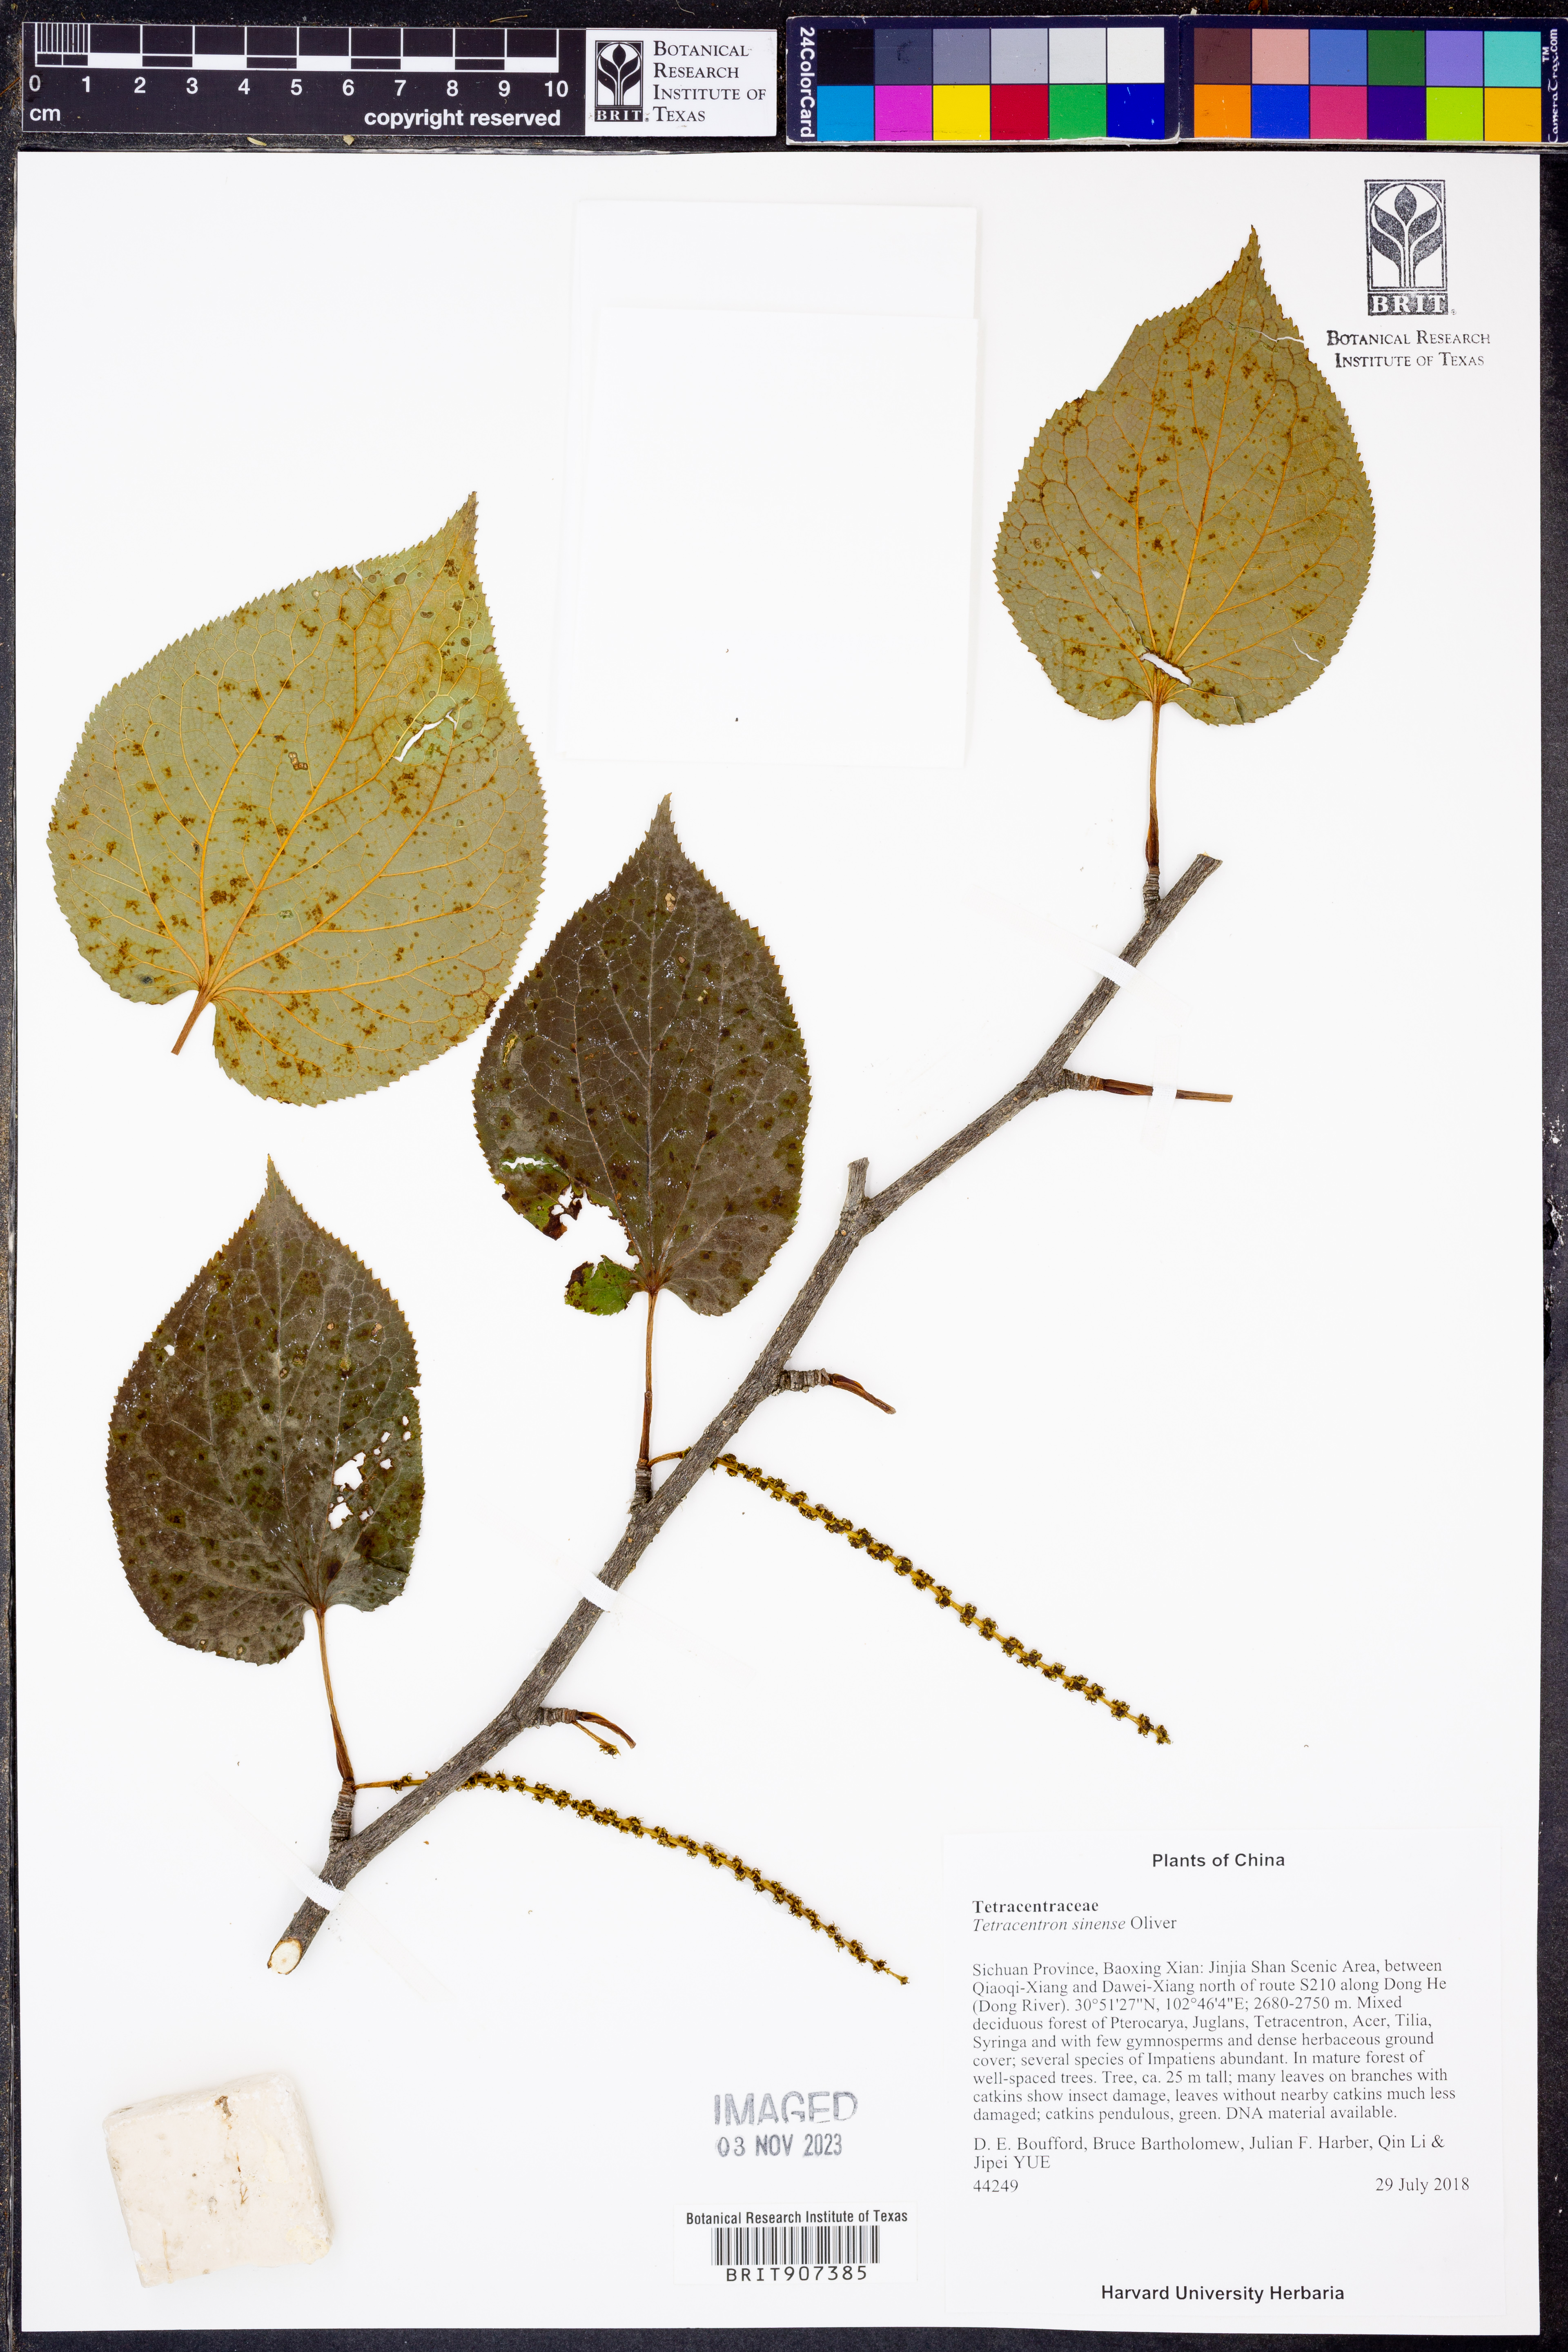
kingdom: Plantae
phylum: Tracheophyta
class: Magnoliopsida
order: Trochodendrales
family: Trochodendraceae
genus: Tetracentron
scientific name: Tetracentron sinense
